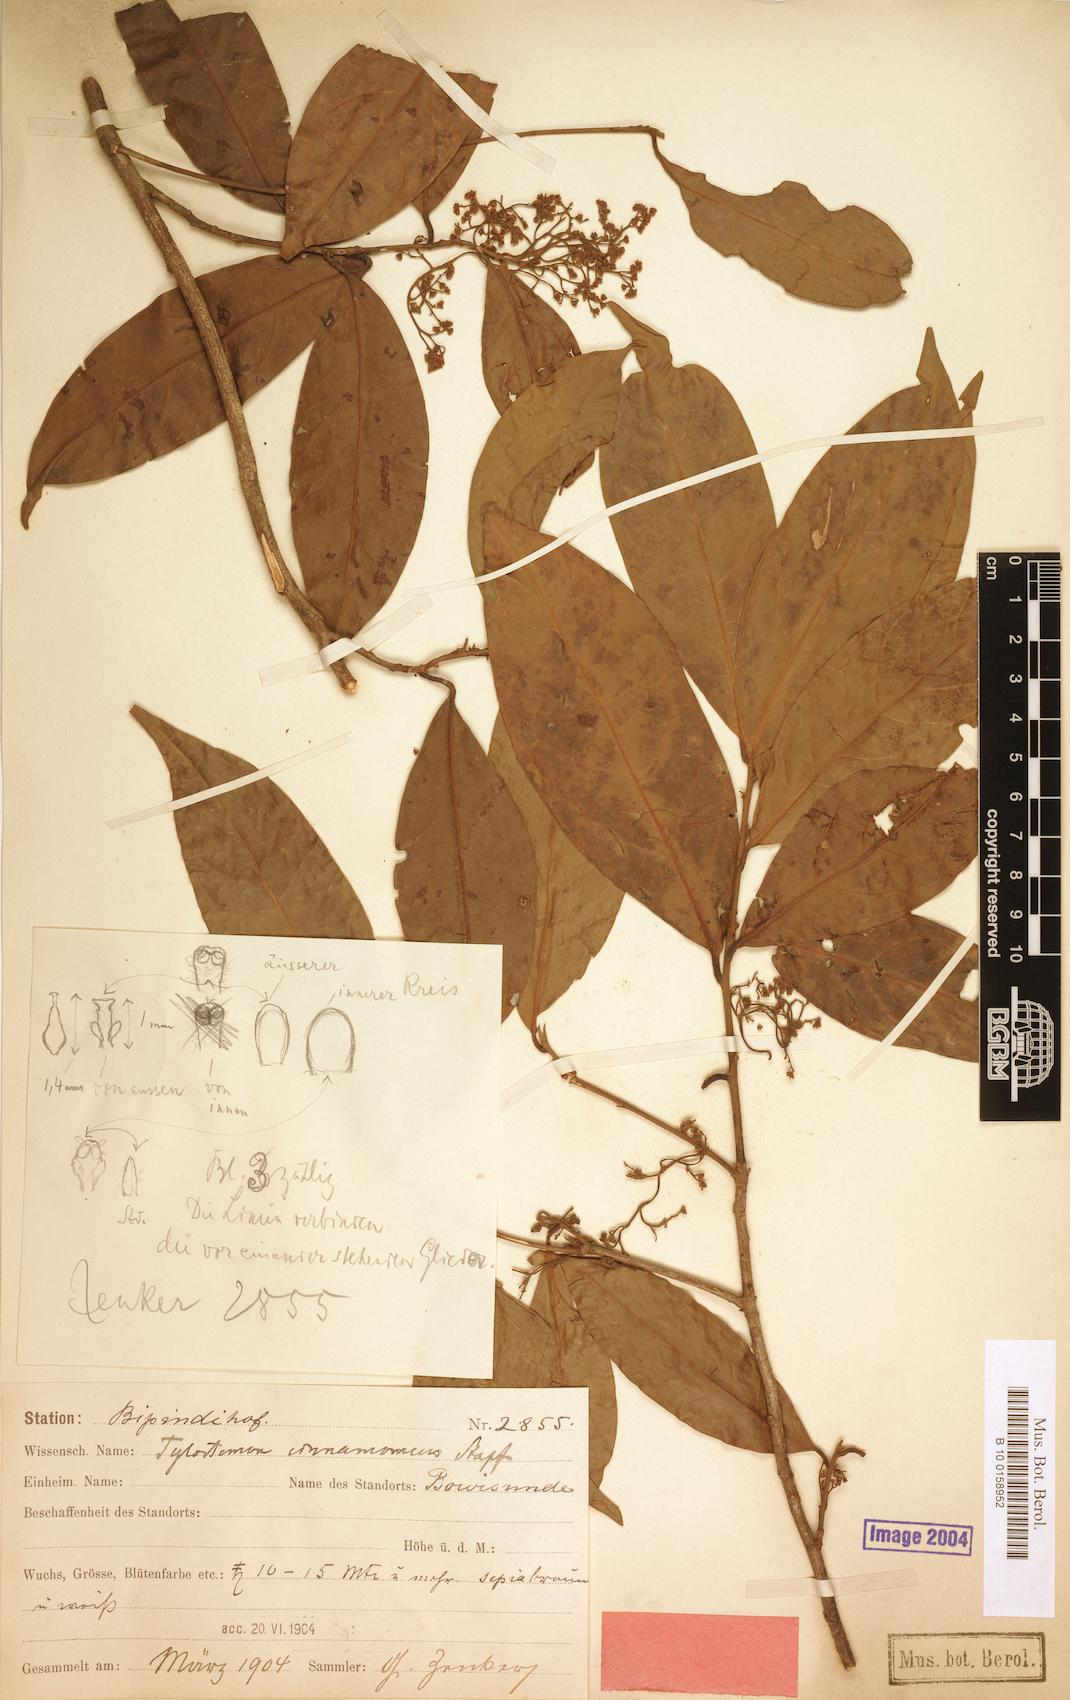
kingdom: Plantae
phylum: Tracheophyta
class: Magnoliopsida
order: Laurales
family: Lauraceae
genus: Beilschmiedia
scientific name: Beilschmiedia cinnamomea
